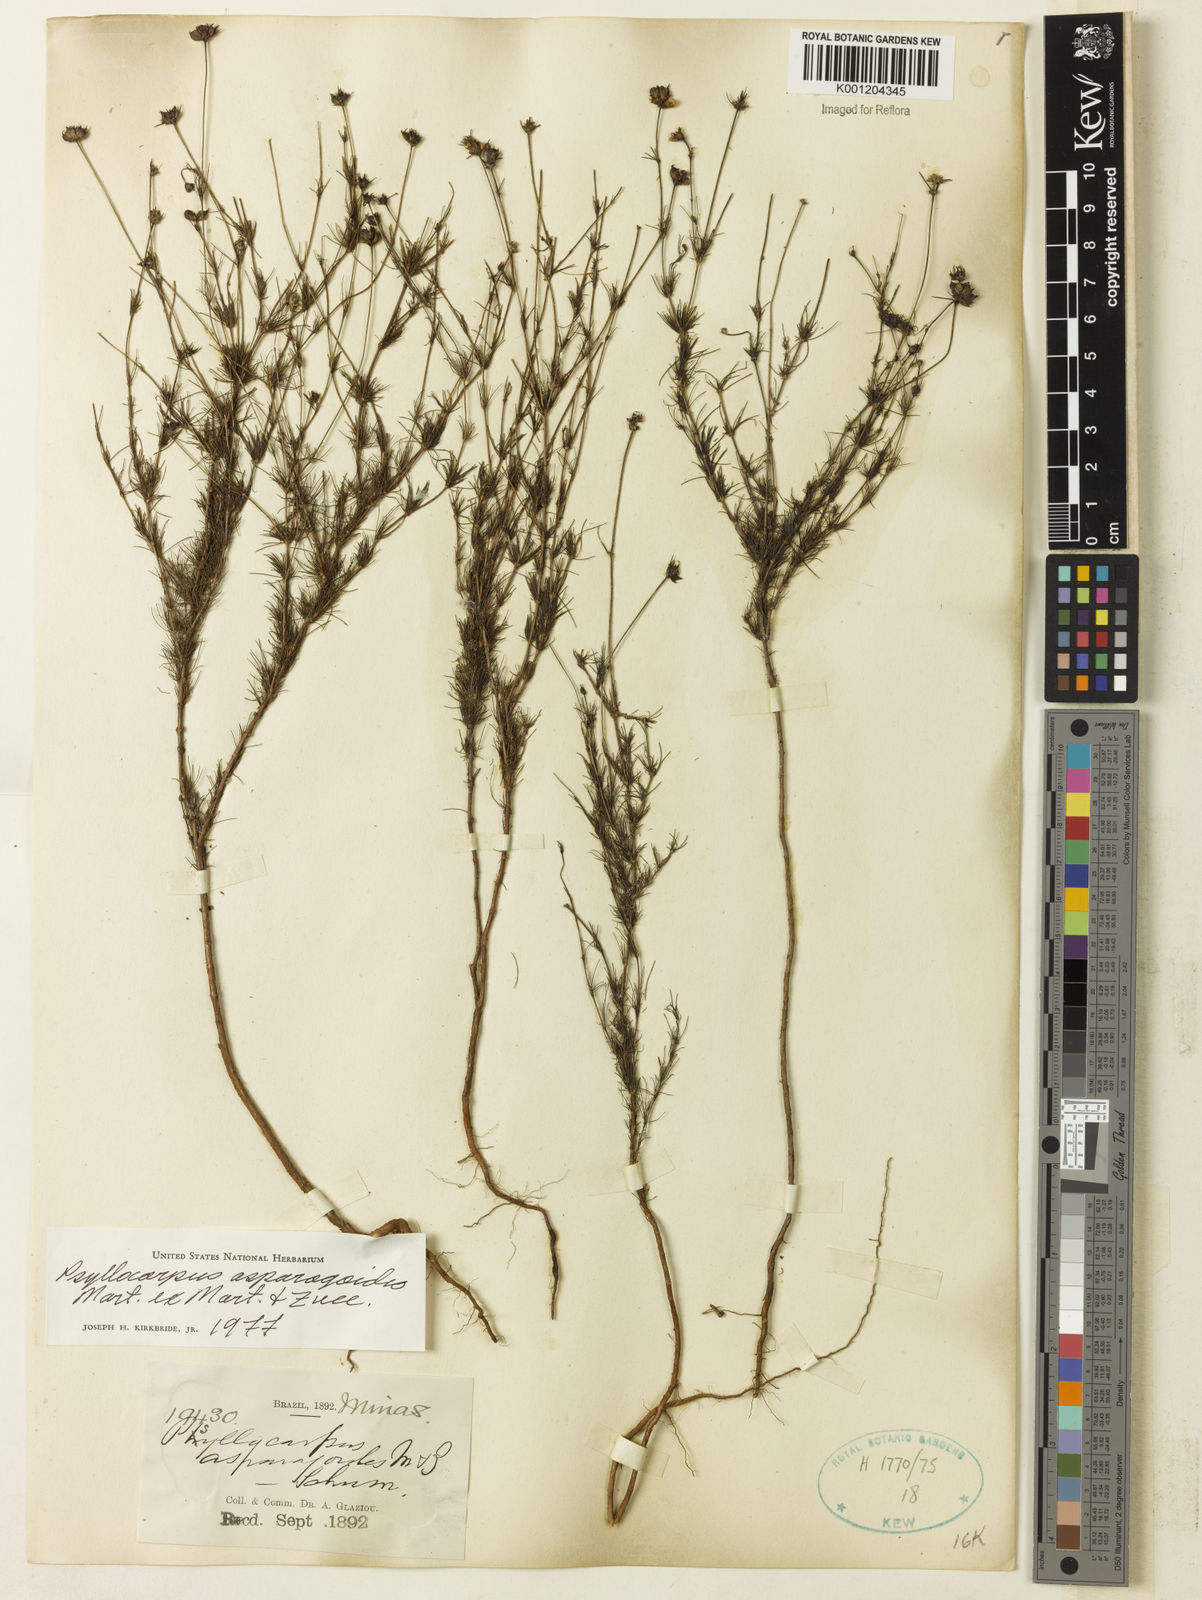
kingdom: Plantae
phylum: Tracheophyta
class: Magnoliopsida
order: Gentianales
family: Rubiaceae
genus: Psyllocarpus
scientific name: Psyllocarpus asparagoides
